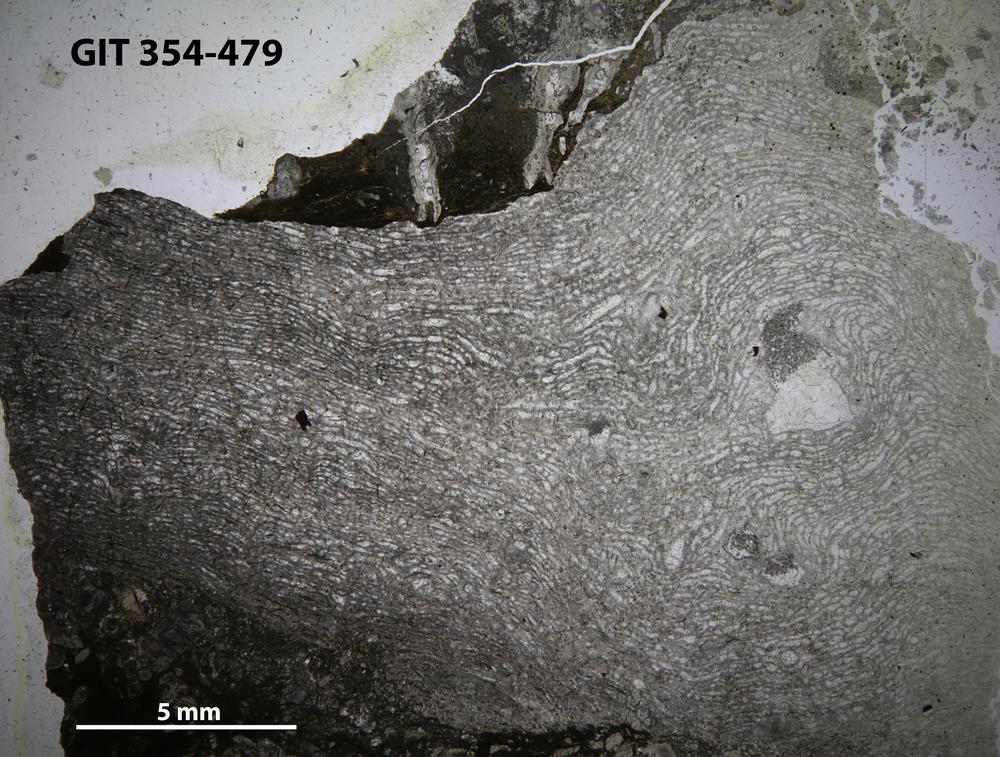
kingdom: Animalia
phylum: Porifera
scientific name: Porifera
